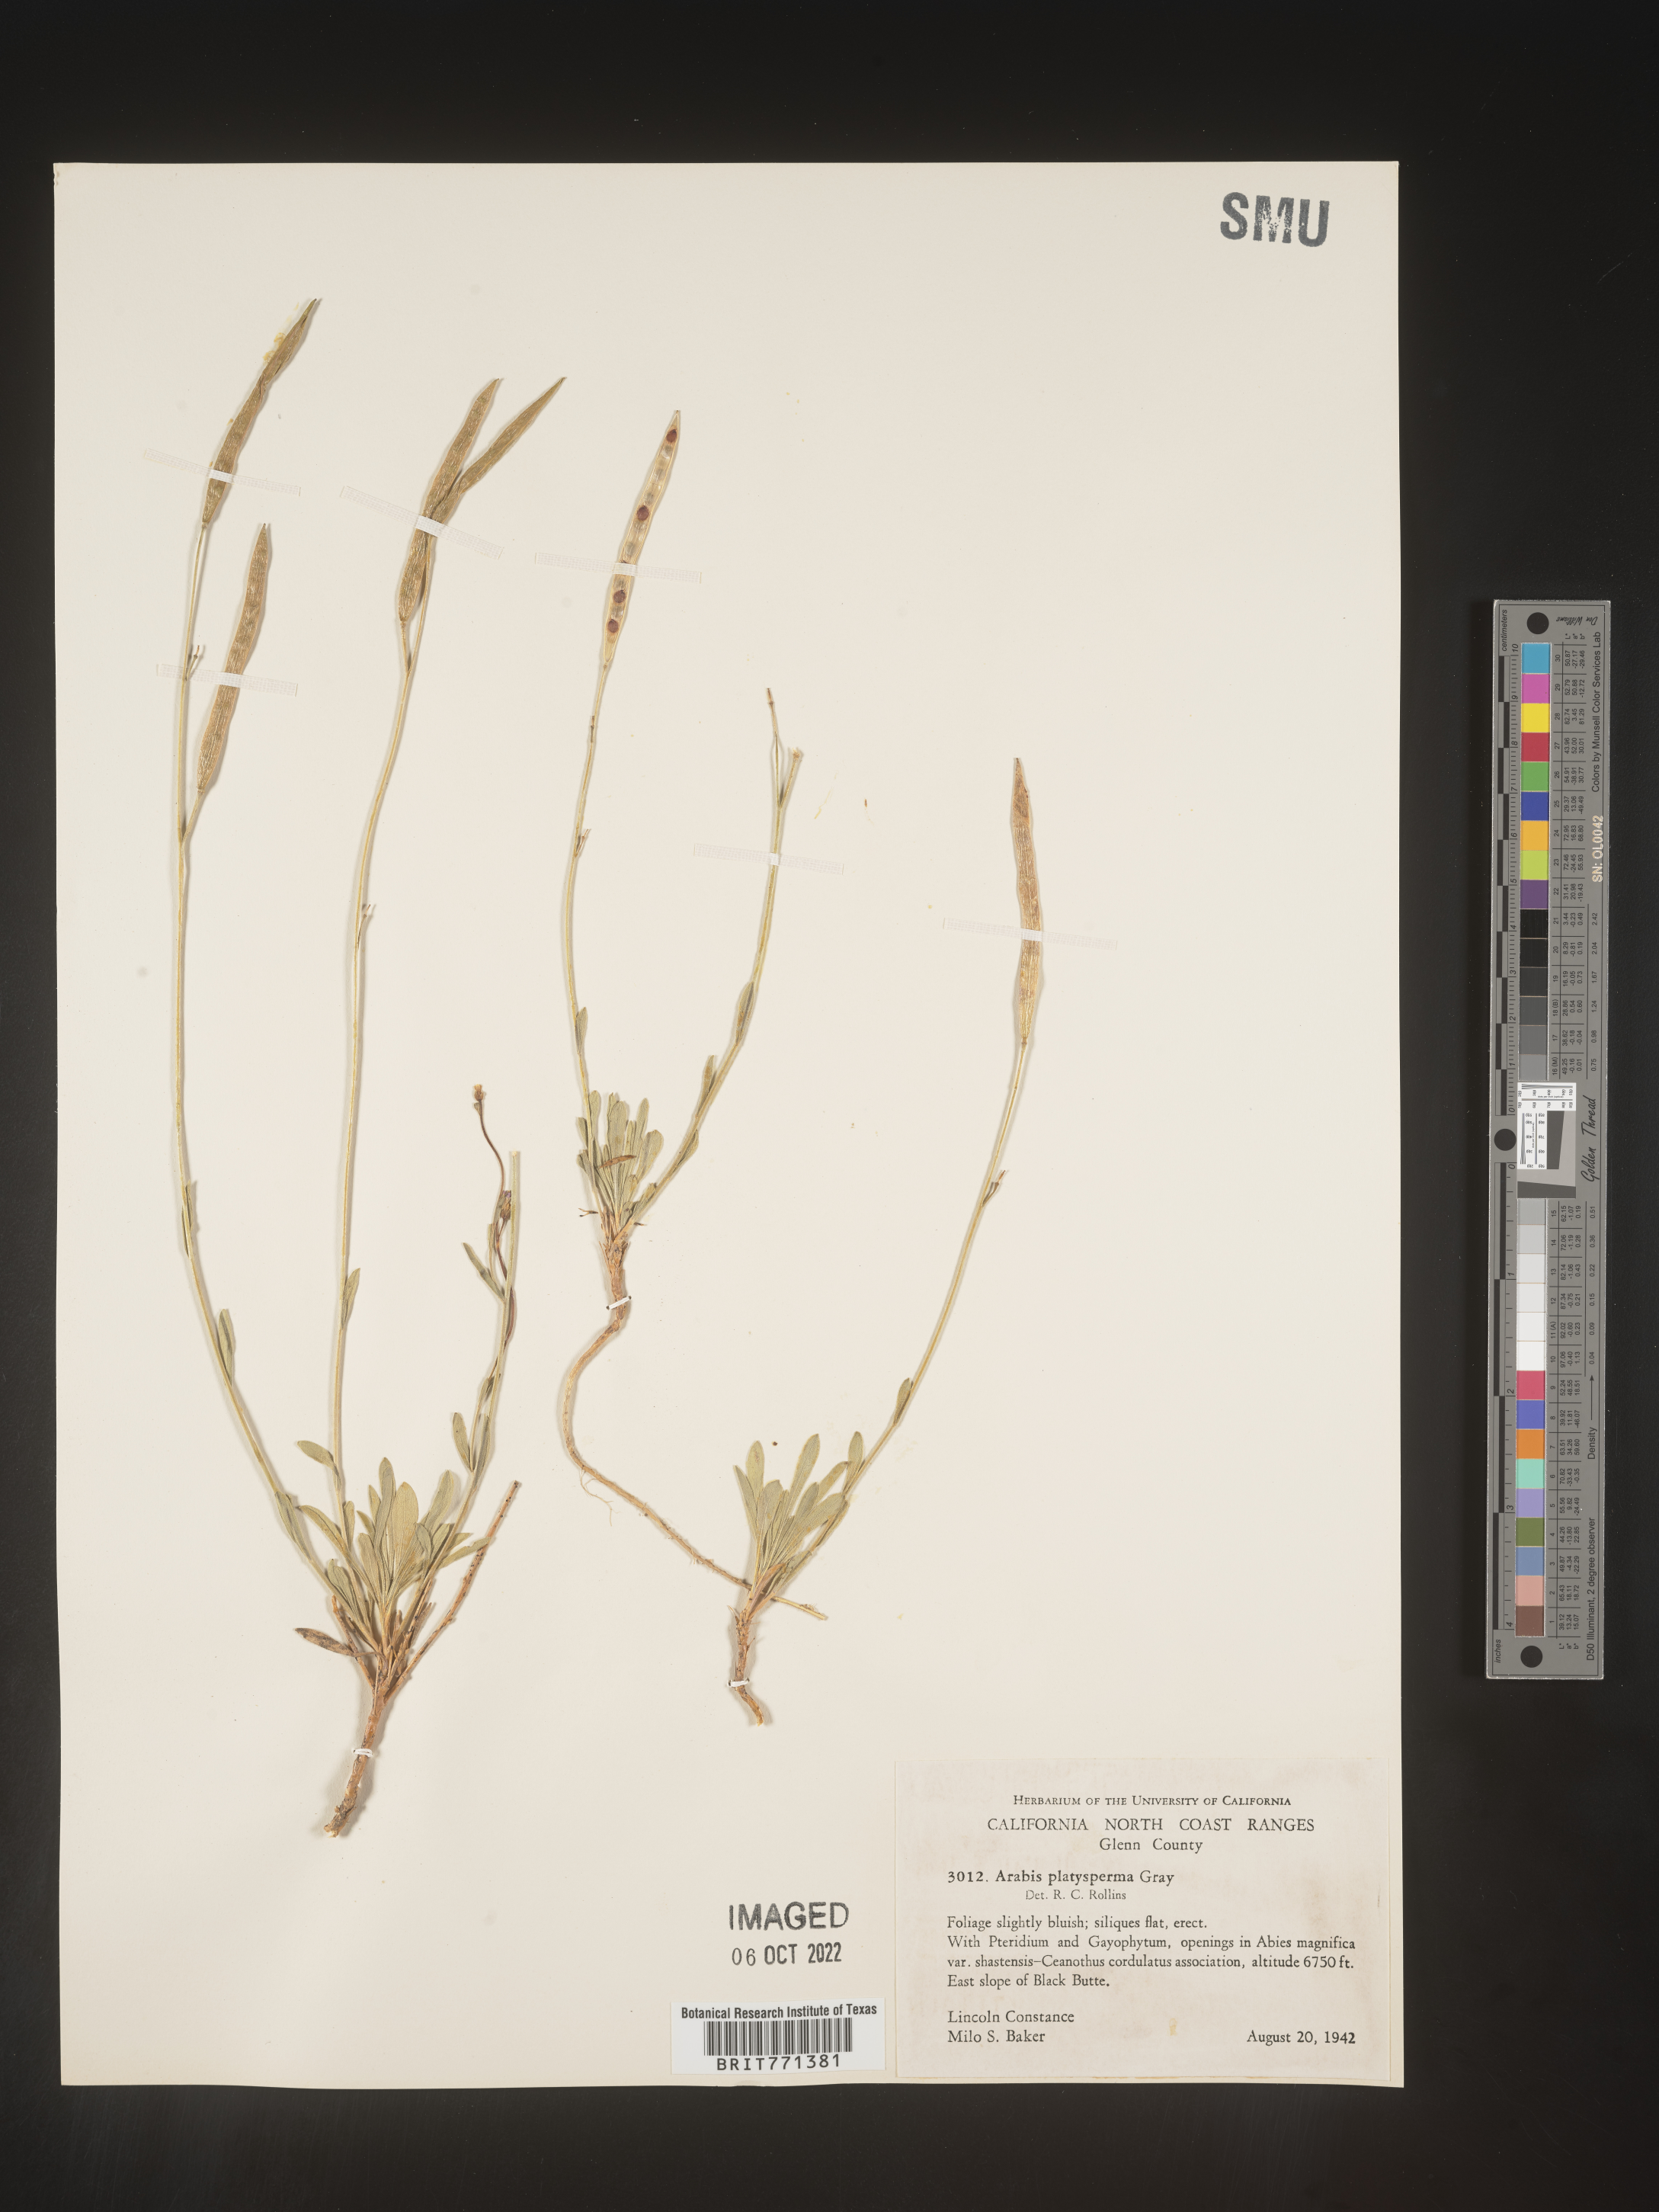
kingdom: Plantae
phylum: Tracheophyta
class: Magnoliopsida
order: Brassicales
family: Brassicaceae
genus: Arabis
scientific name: Arabis
